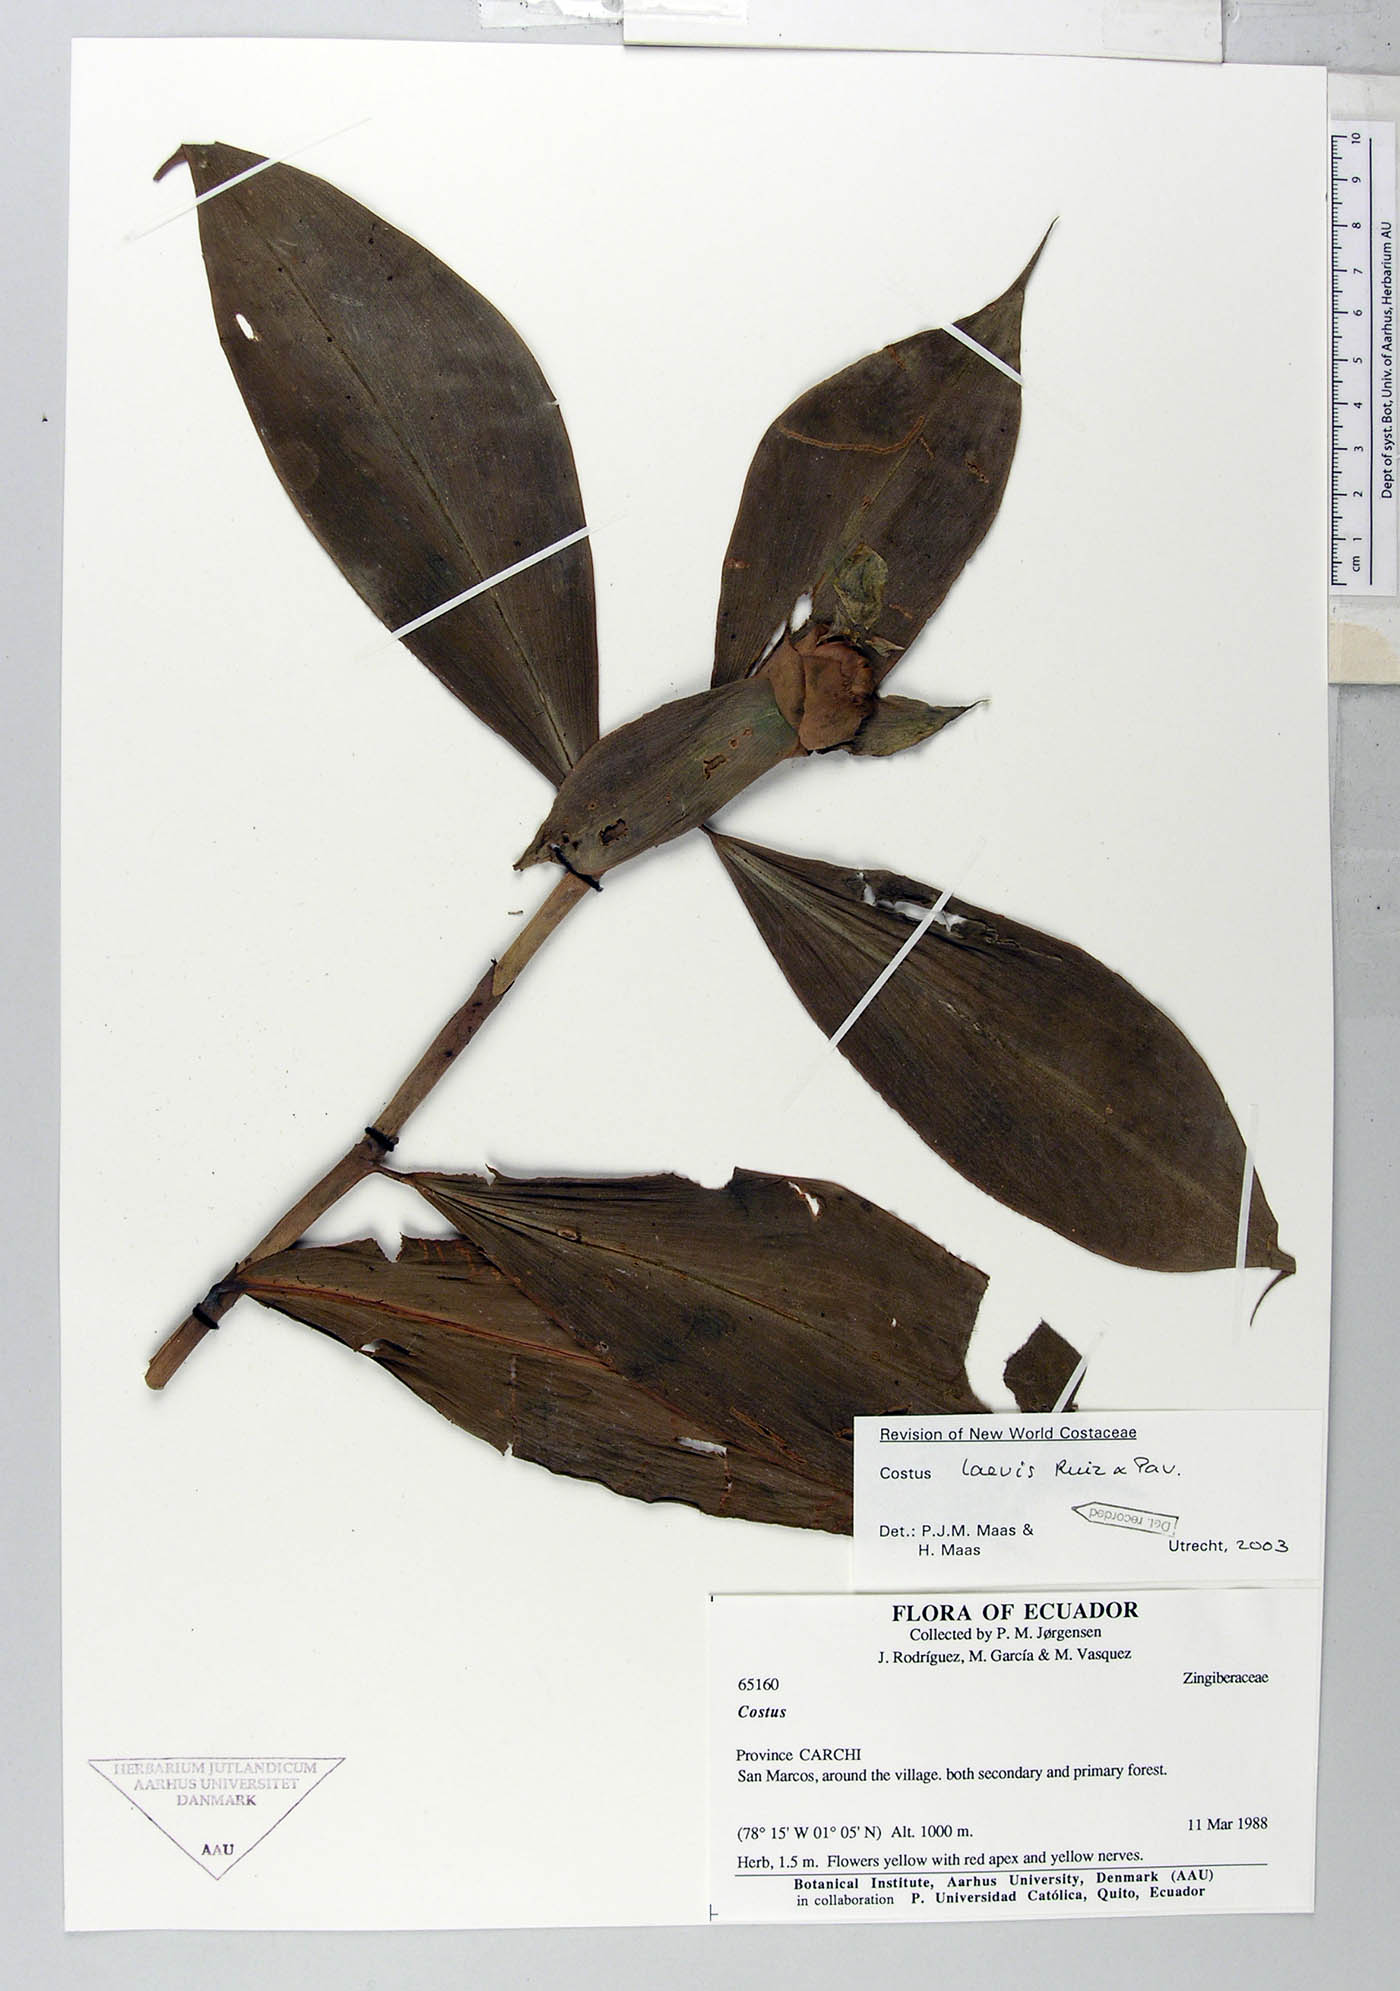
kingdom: Plantae
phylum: Tracheophyta
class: Liliopsida
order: Zingiberales
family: Costaceae
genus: Costus
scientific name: Costus laevis
